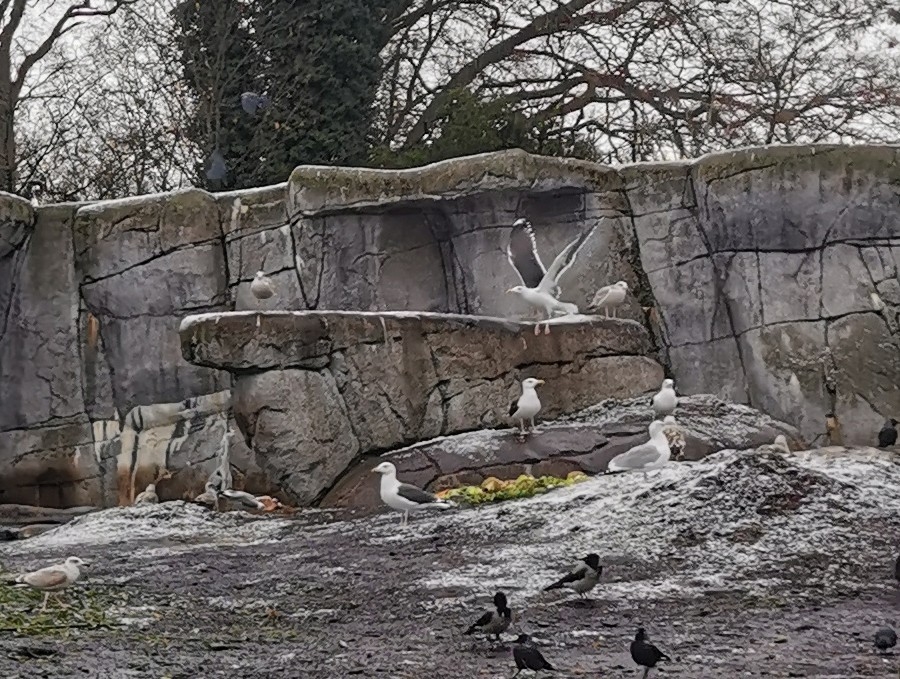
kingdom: Animalia
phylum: Chordata
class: Aves
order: Charadriiformes
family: Laridae
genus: Larus
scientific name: Larus marinus
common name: Svartbag
